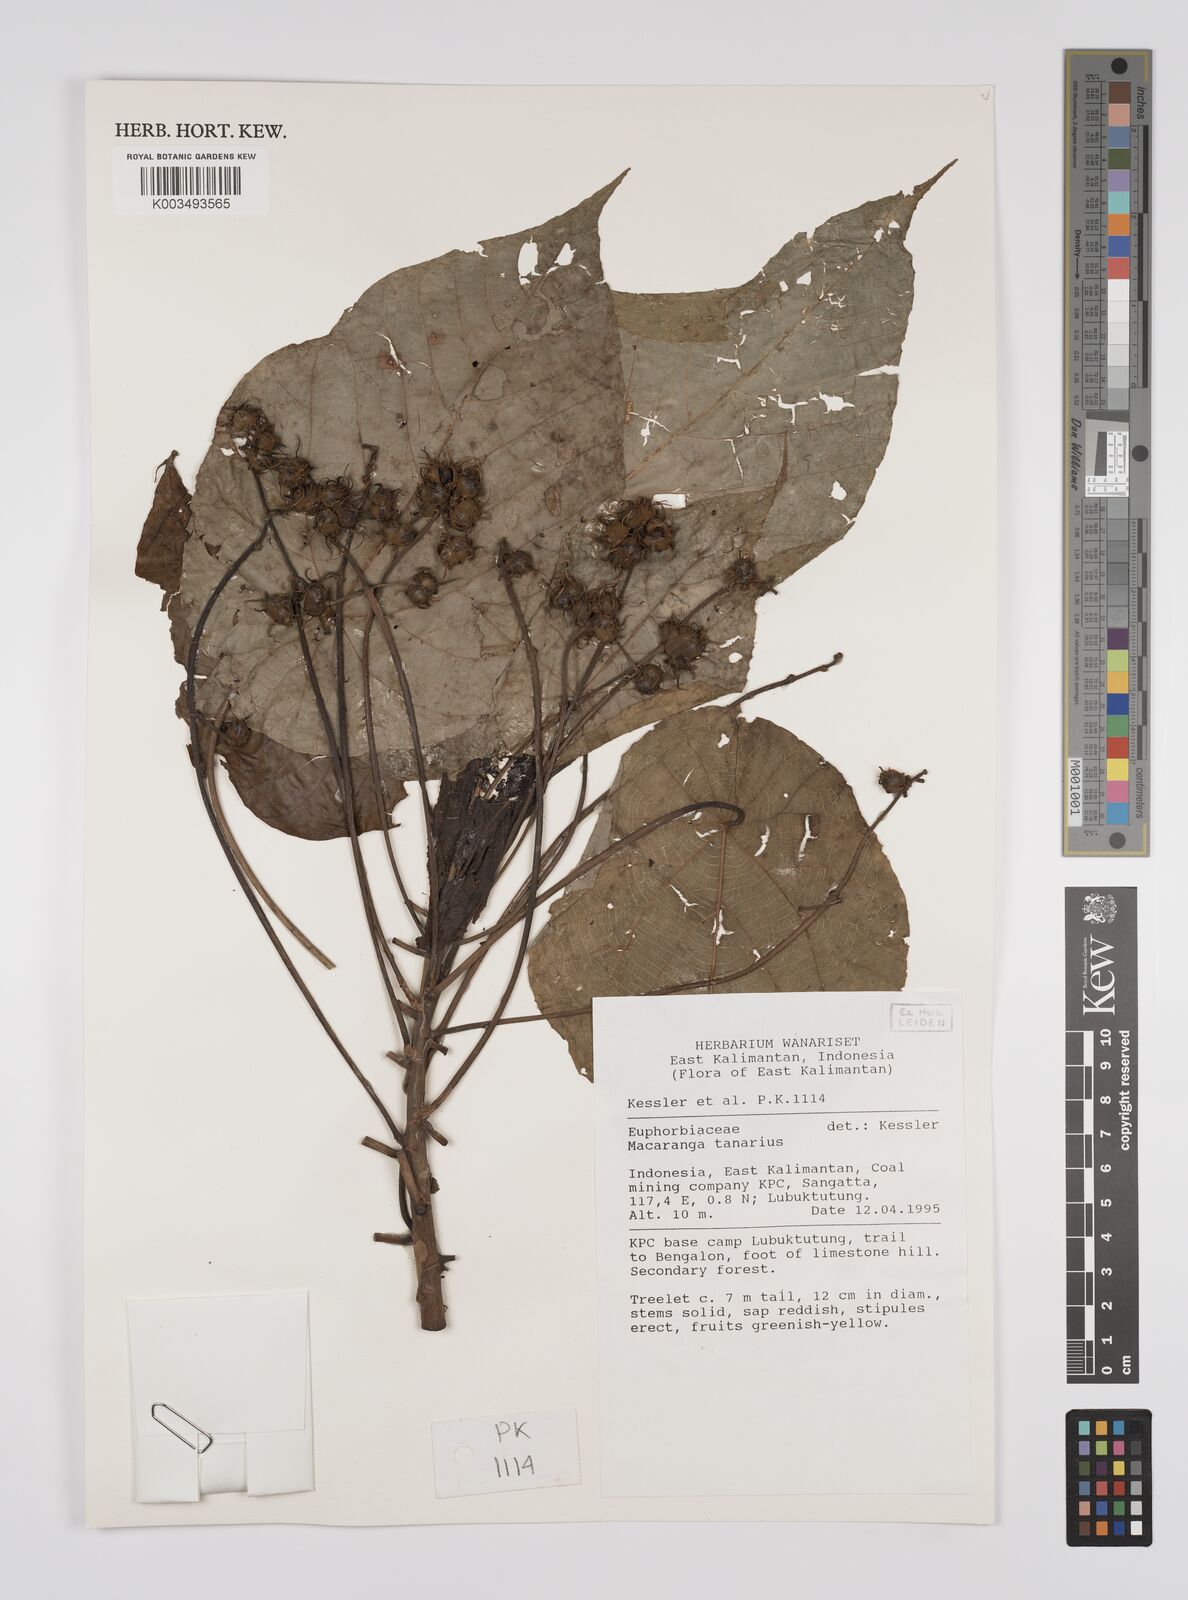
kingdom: Plantae
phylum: Tracheophyta
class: Magnoliopsida
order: Malpighiales
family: Euphorbiaceae
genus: Macaranga
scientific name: Macaranga tanarius
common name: Parasol leaf tree
